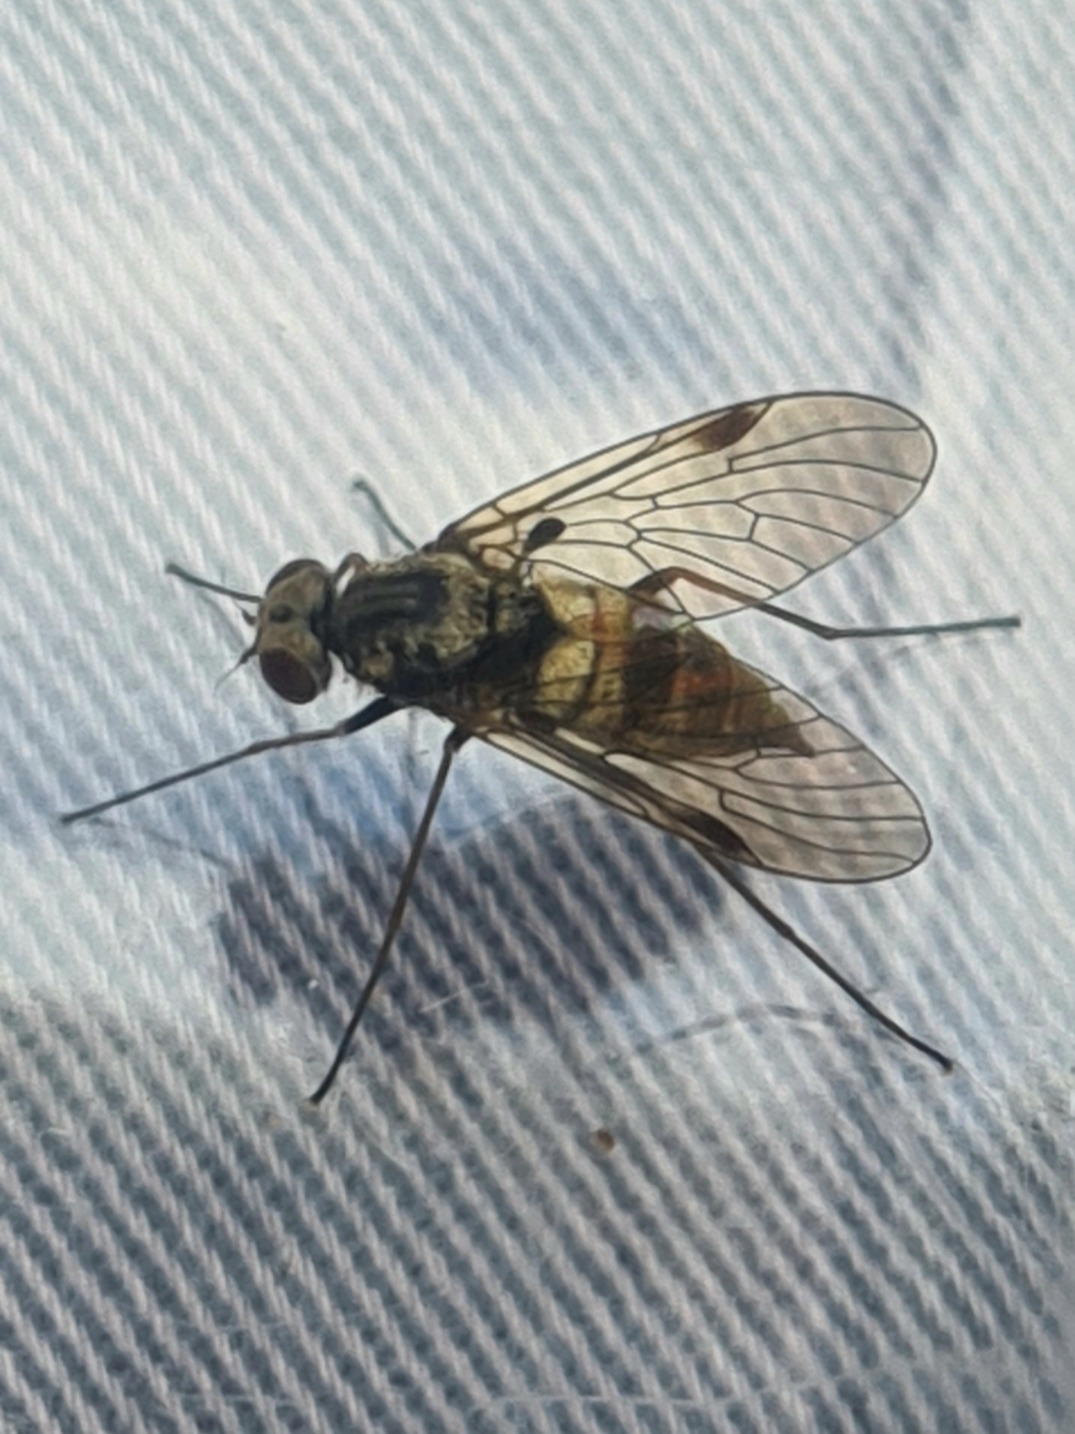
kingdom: Animalia
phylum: Arthropoda
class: Insecta
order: Diptera
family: Rhagionidae
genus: Chrysopilus
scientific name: Chrysopilus cristatus
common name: Gulhåret sneppeflue
